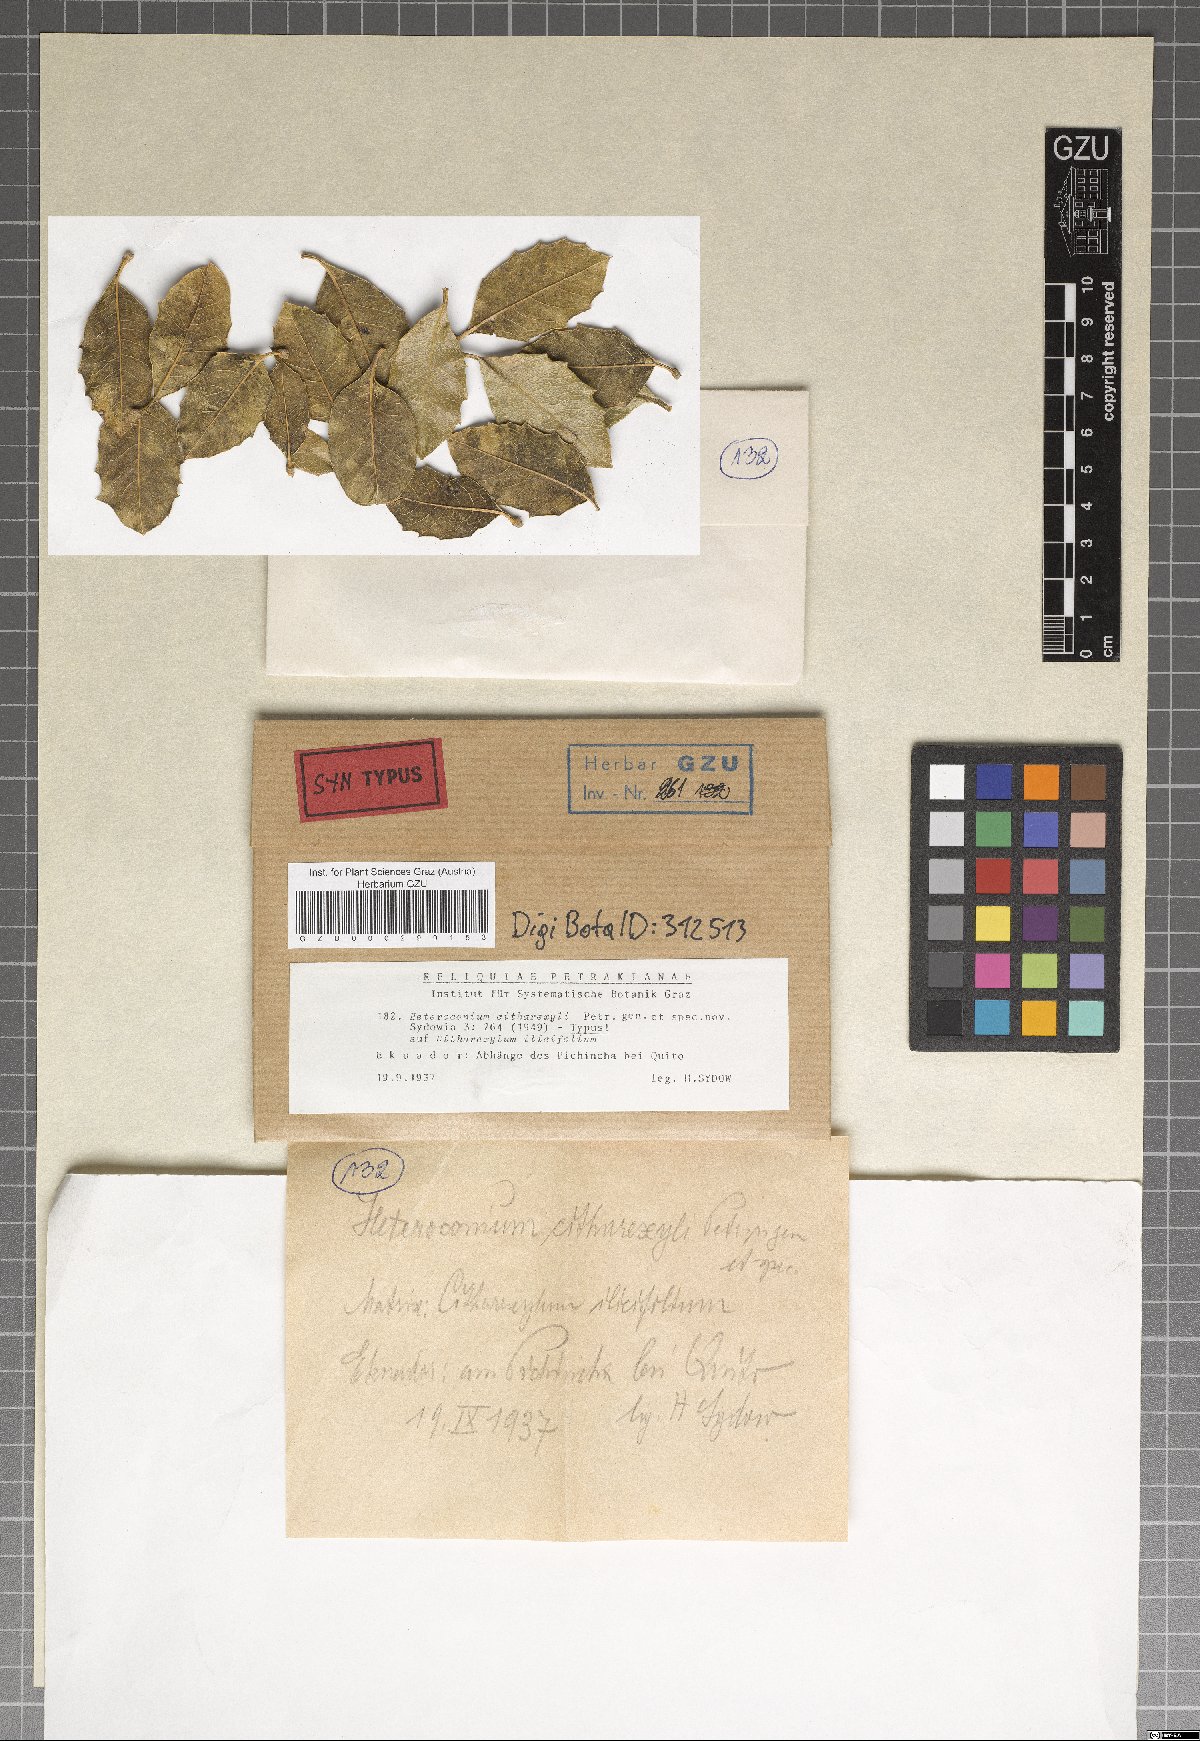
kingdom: Fungi
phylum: Ascomycota
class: Dothideomycetes
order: Capnodiales
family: Antennulariellaceae
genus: Heteroconium
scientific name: Heteroconium citharexyli
